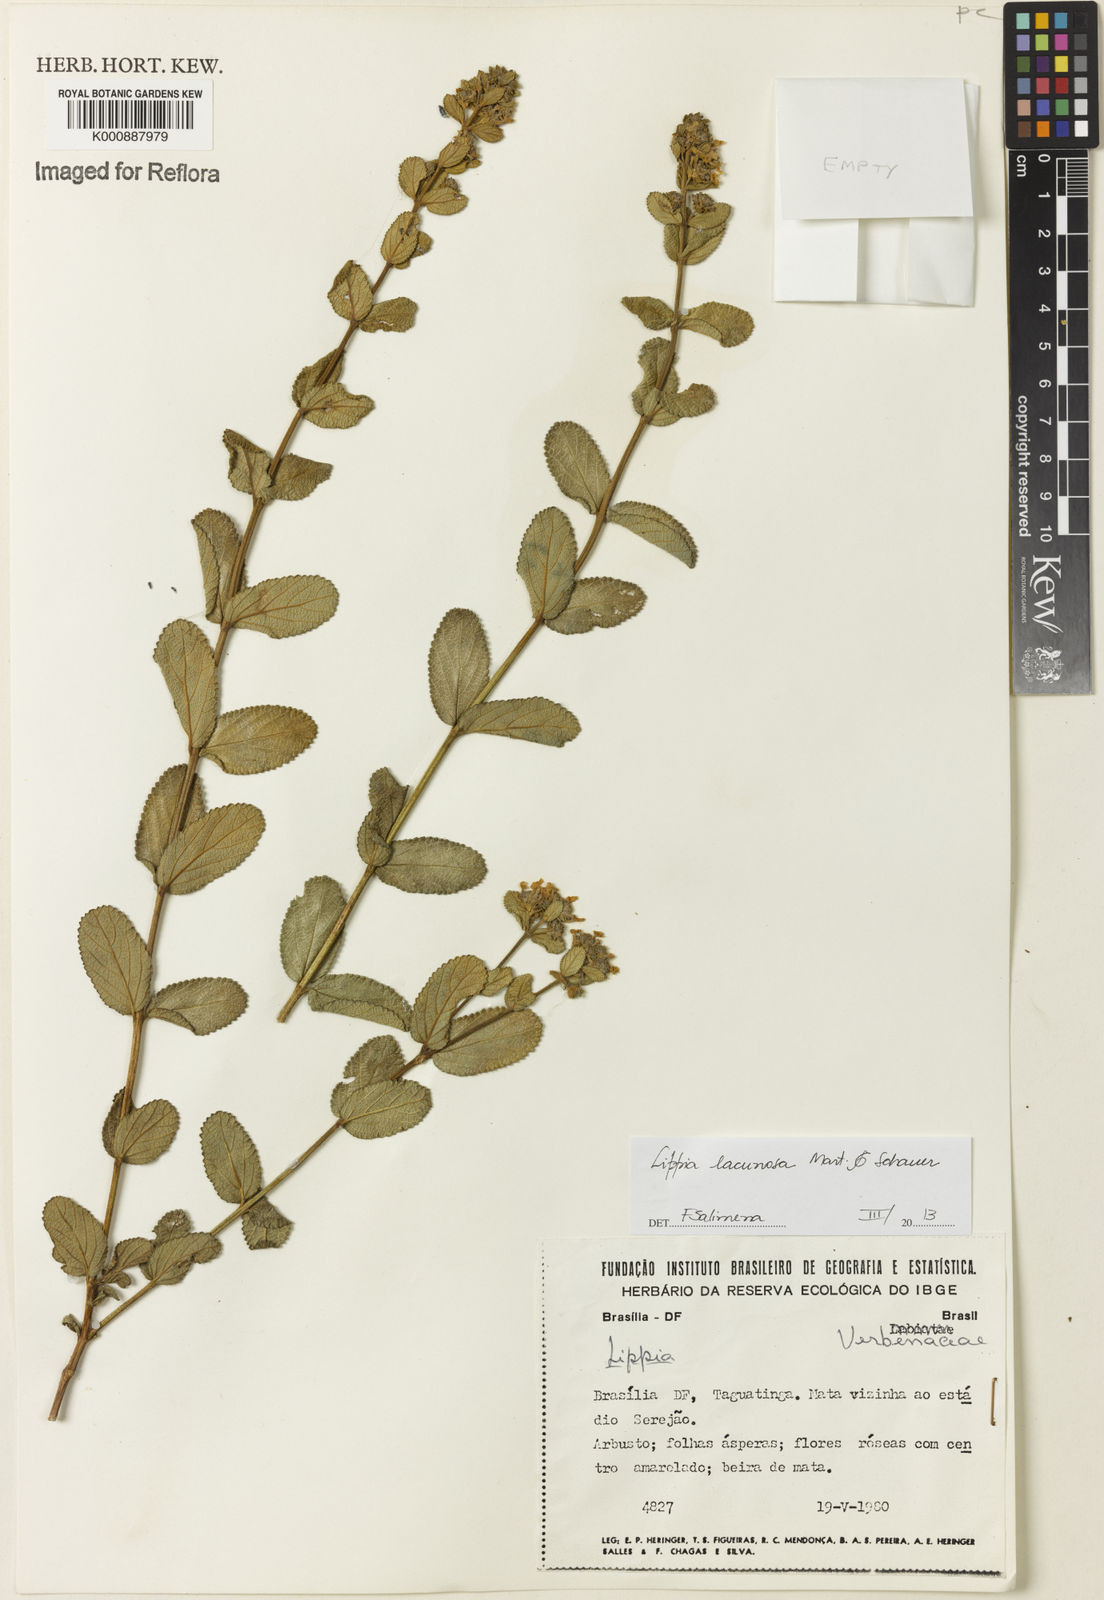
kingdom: Plantae
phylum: Tracheophyta
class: Magnoliopsida
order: Lamiales
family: Verbenaceae
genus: Lippia
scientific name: Lippia lacunosa
